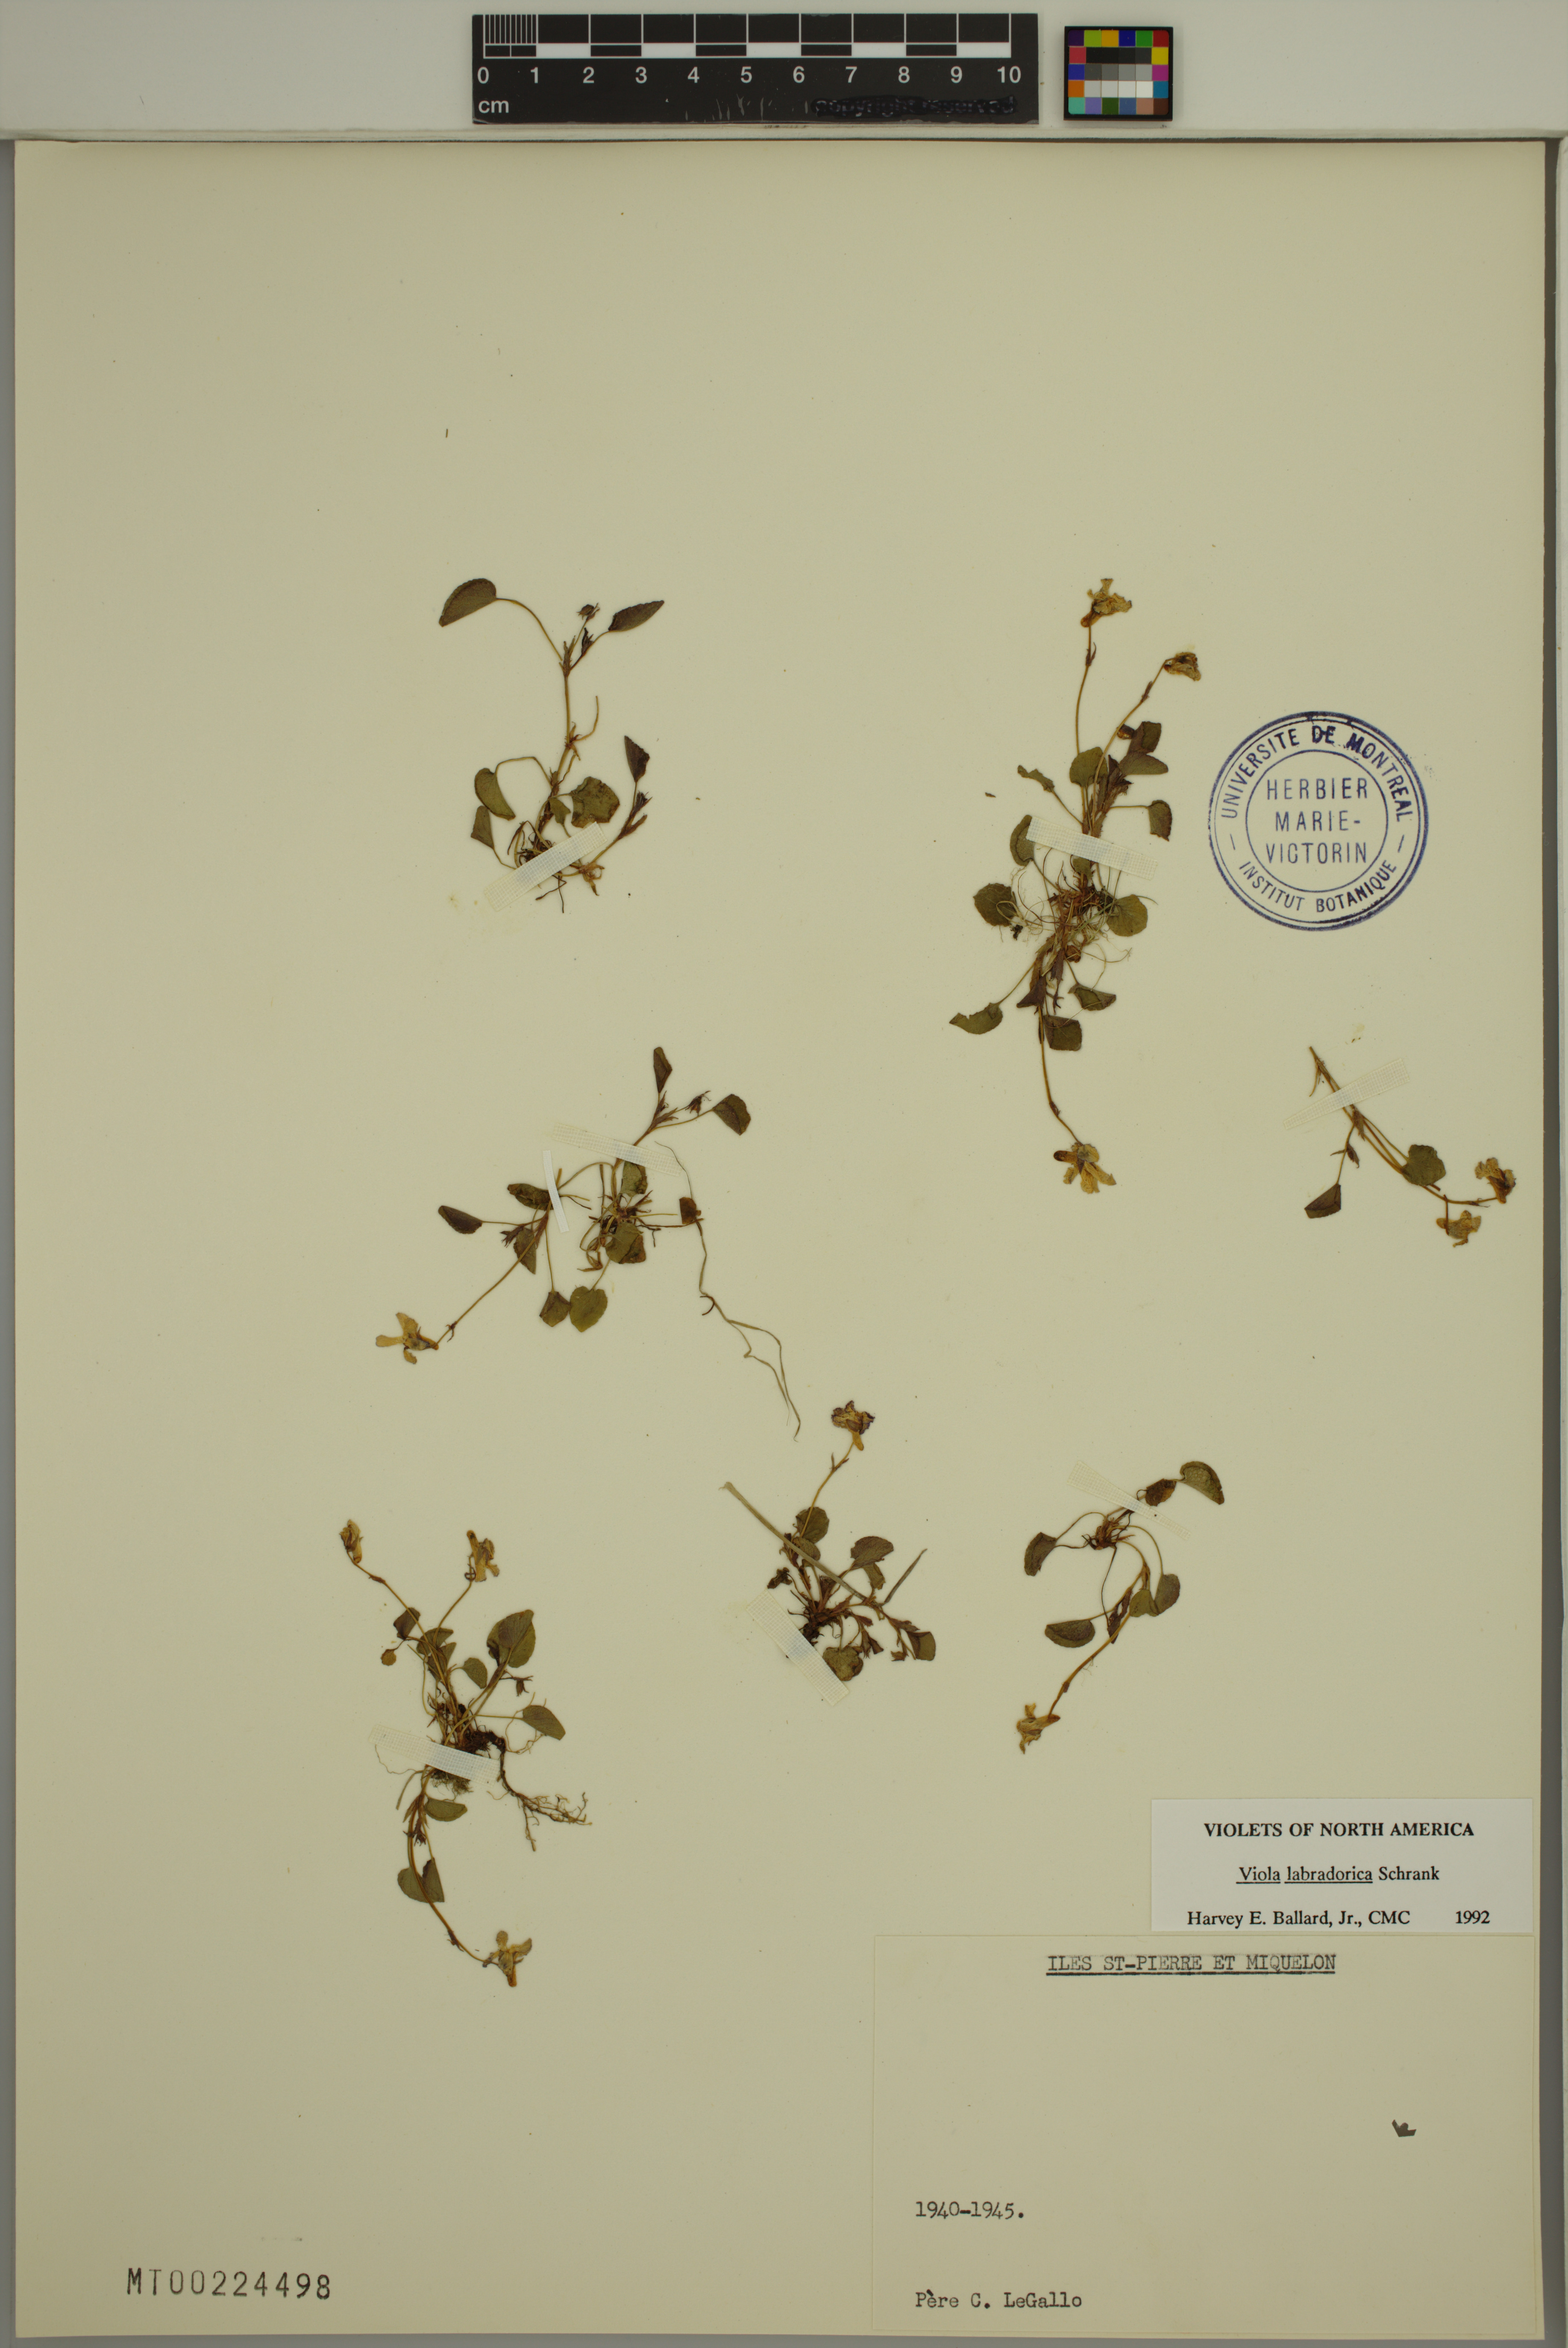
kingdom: Plantae
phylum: Tracheophyta
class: Magnoliopsida
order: Malpighiales
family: Violaceae
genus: Viola
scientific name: Viola labradorica
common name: Labrador violet
